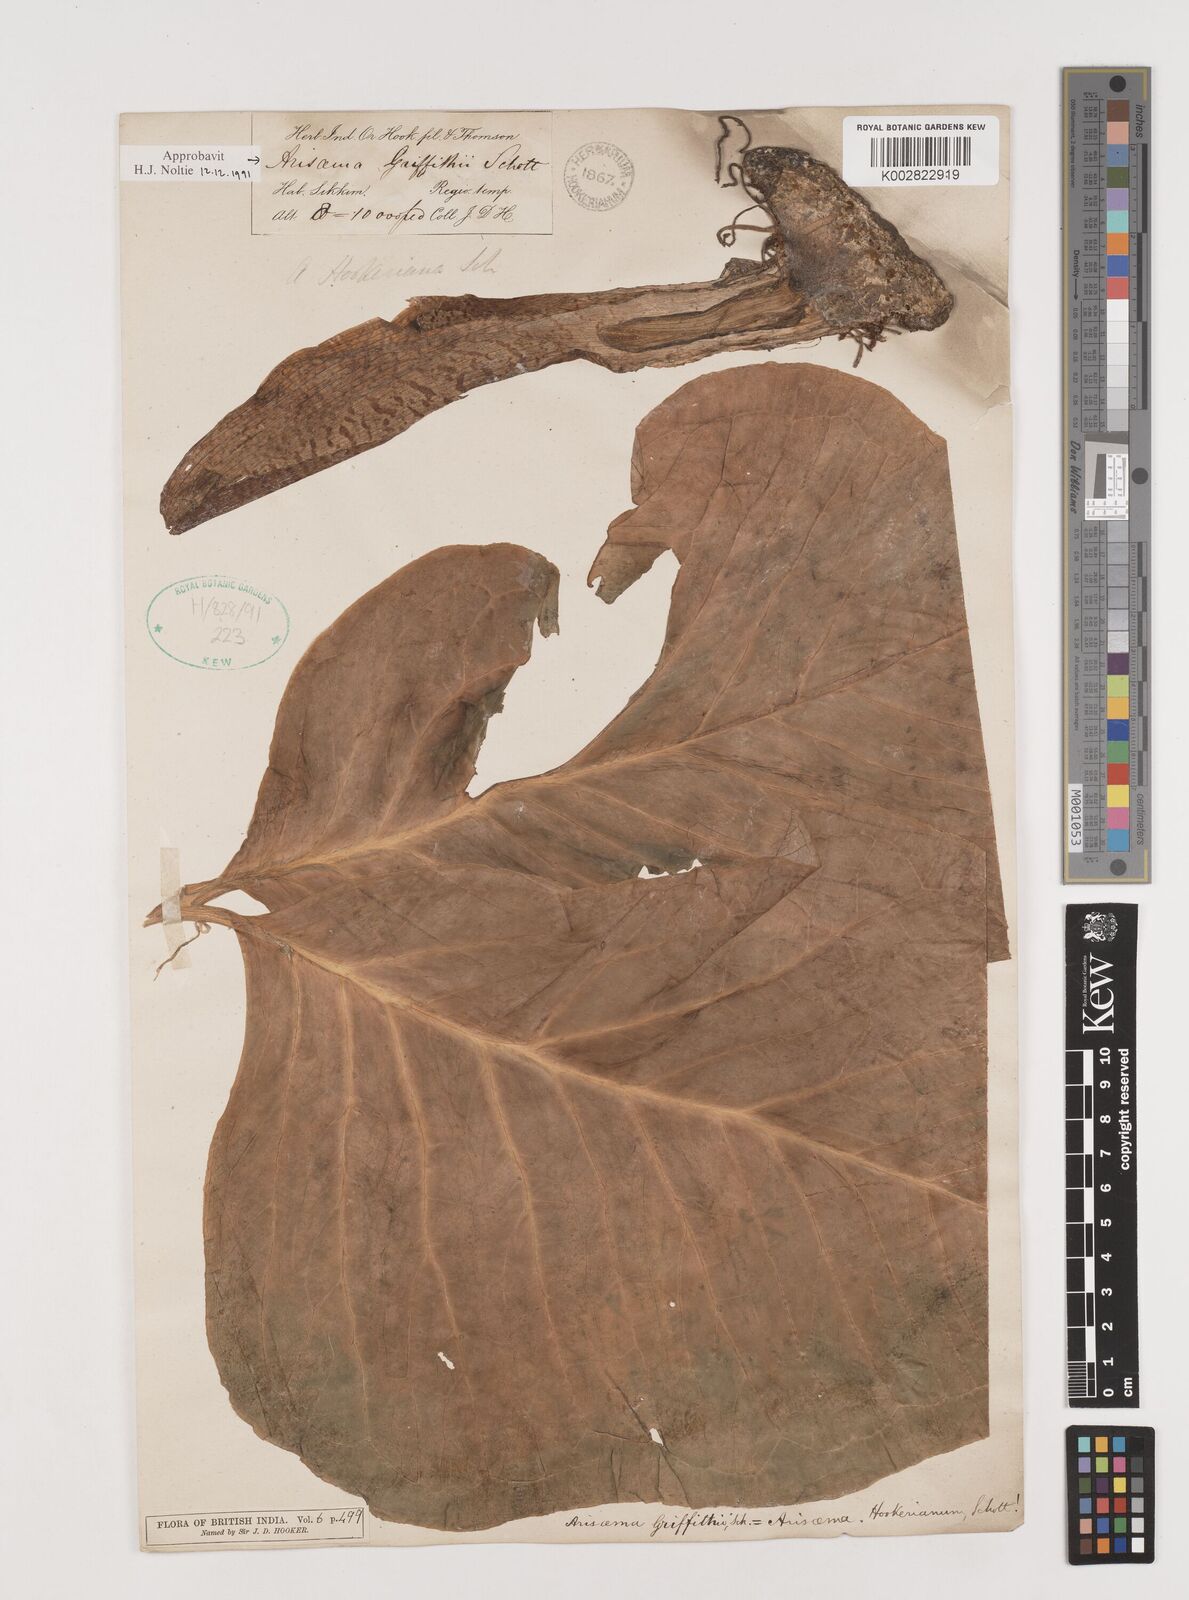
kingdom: Plantae
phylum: Tracheophyta
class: Liliopsida
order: Alismatales
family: Araceae
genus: Arisaema
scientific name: Arisaema griffithii
